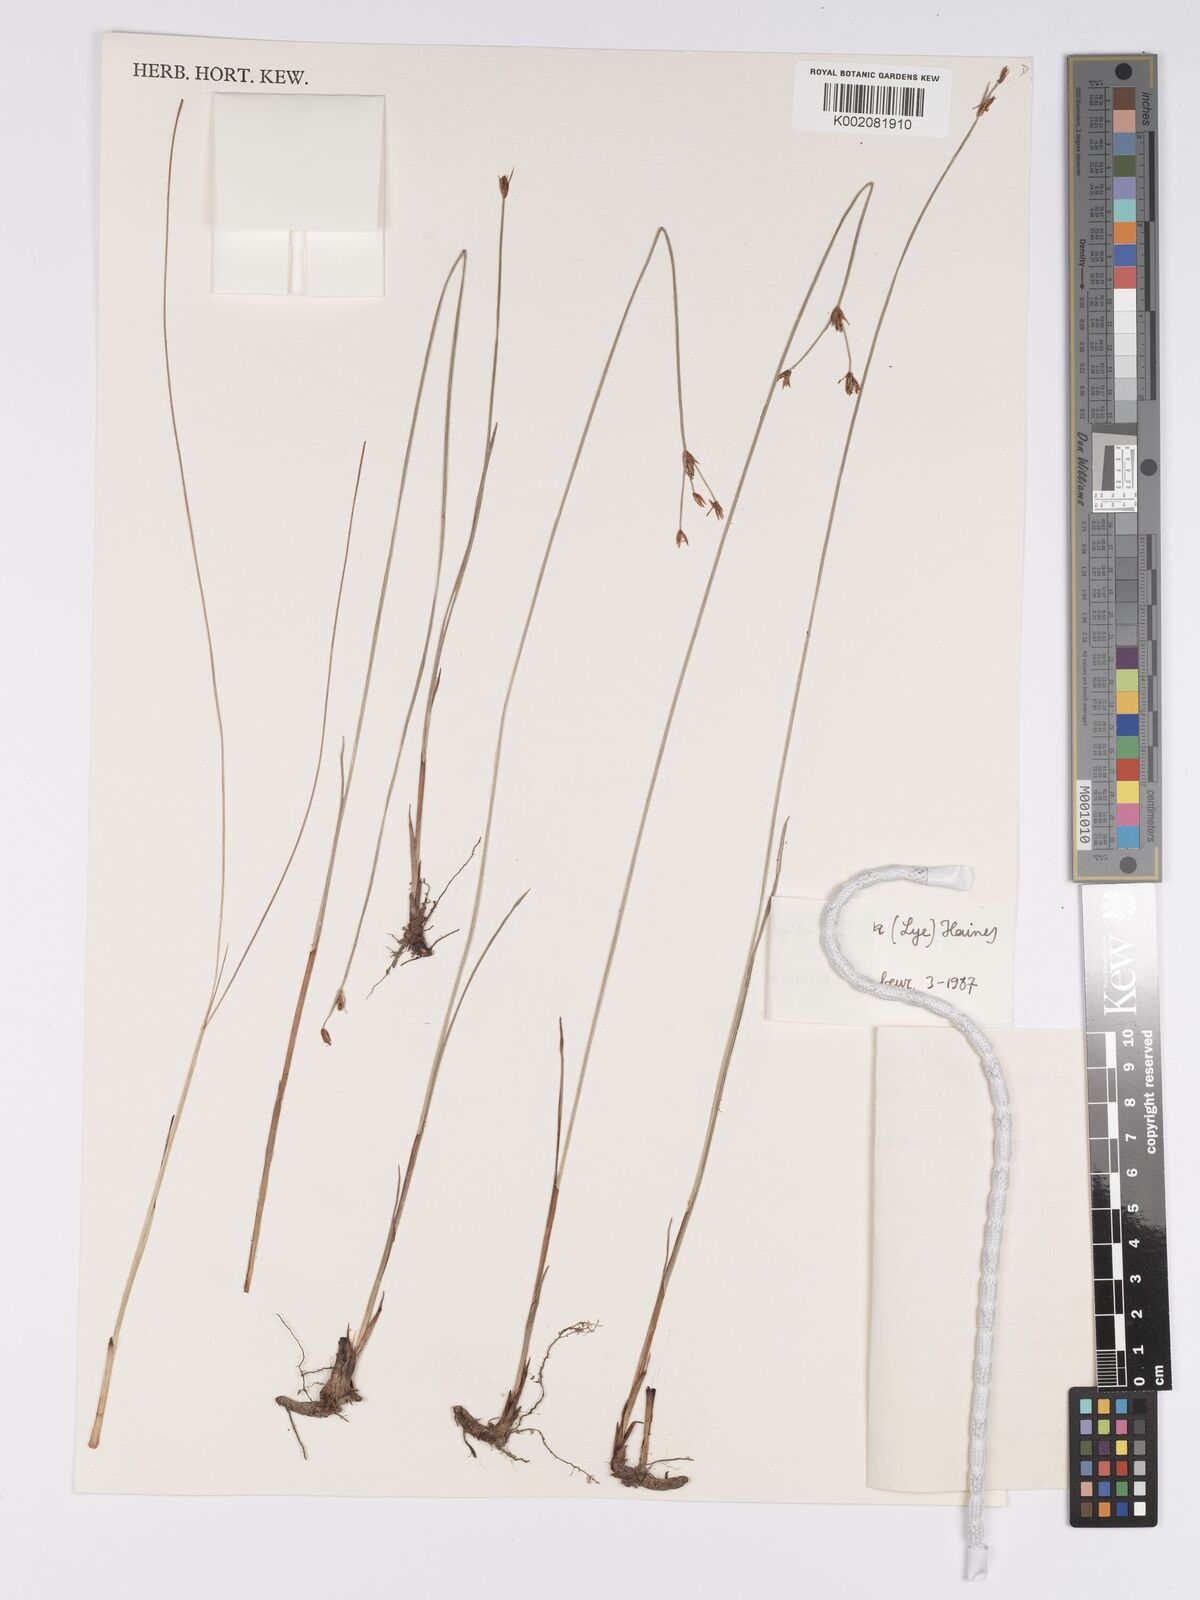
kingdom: Plantae
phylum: Tracheophyta
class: Liliopsida
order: Poales
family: Cyperaceae
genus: Bulbostylis
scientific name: Bulbostylis rhizomatosa
